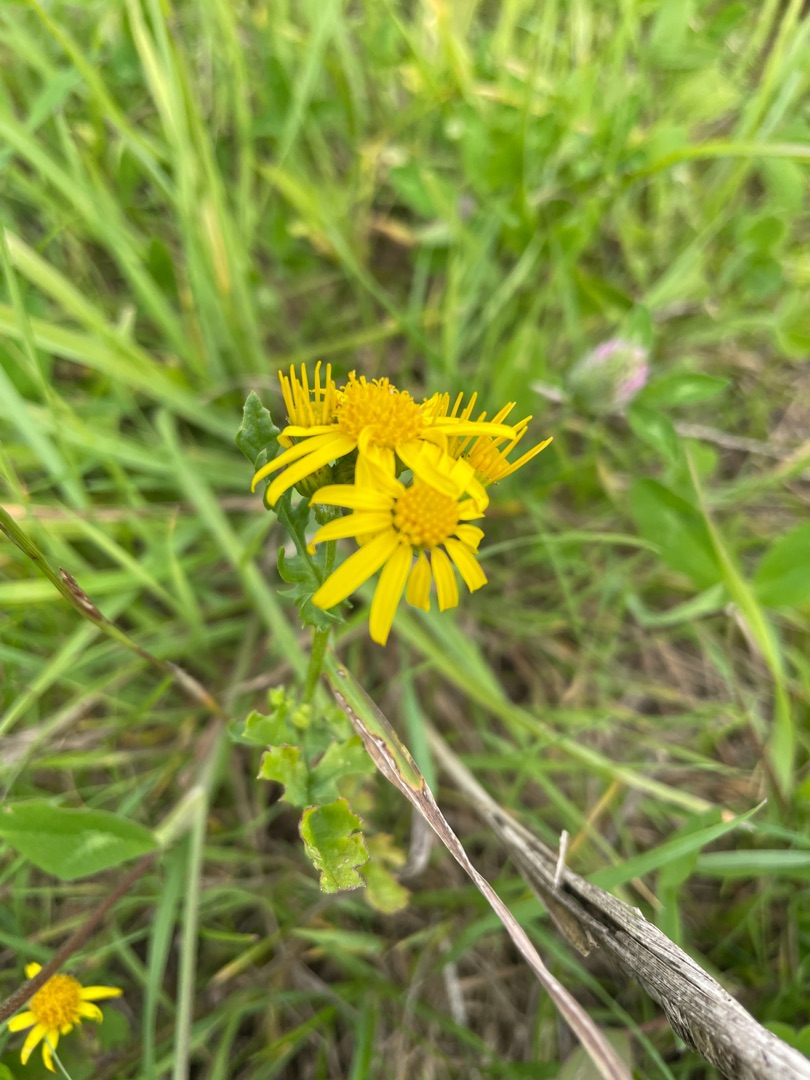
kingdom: Plantae
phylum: Tracheophyta
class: Magnoliopsida
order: Asterales
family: Asteraceae
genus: Jacobaea
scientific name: Jacobaea vulgaris
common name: Eng-brandbæger
